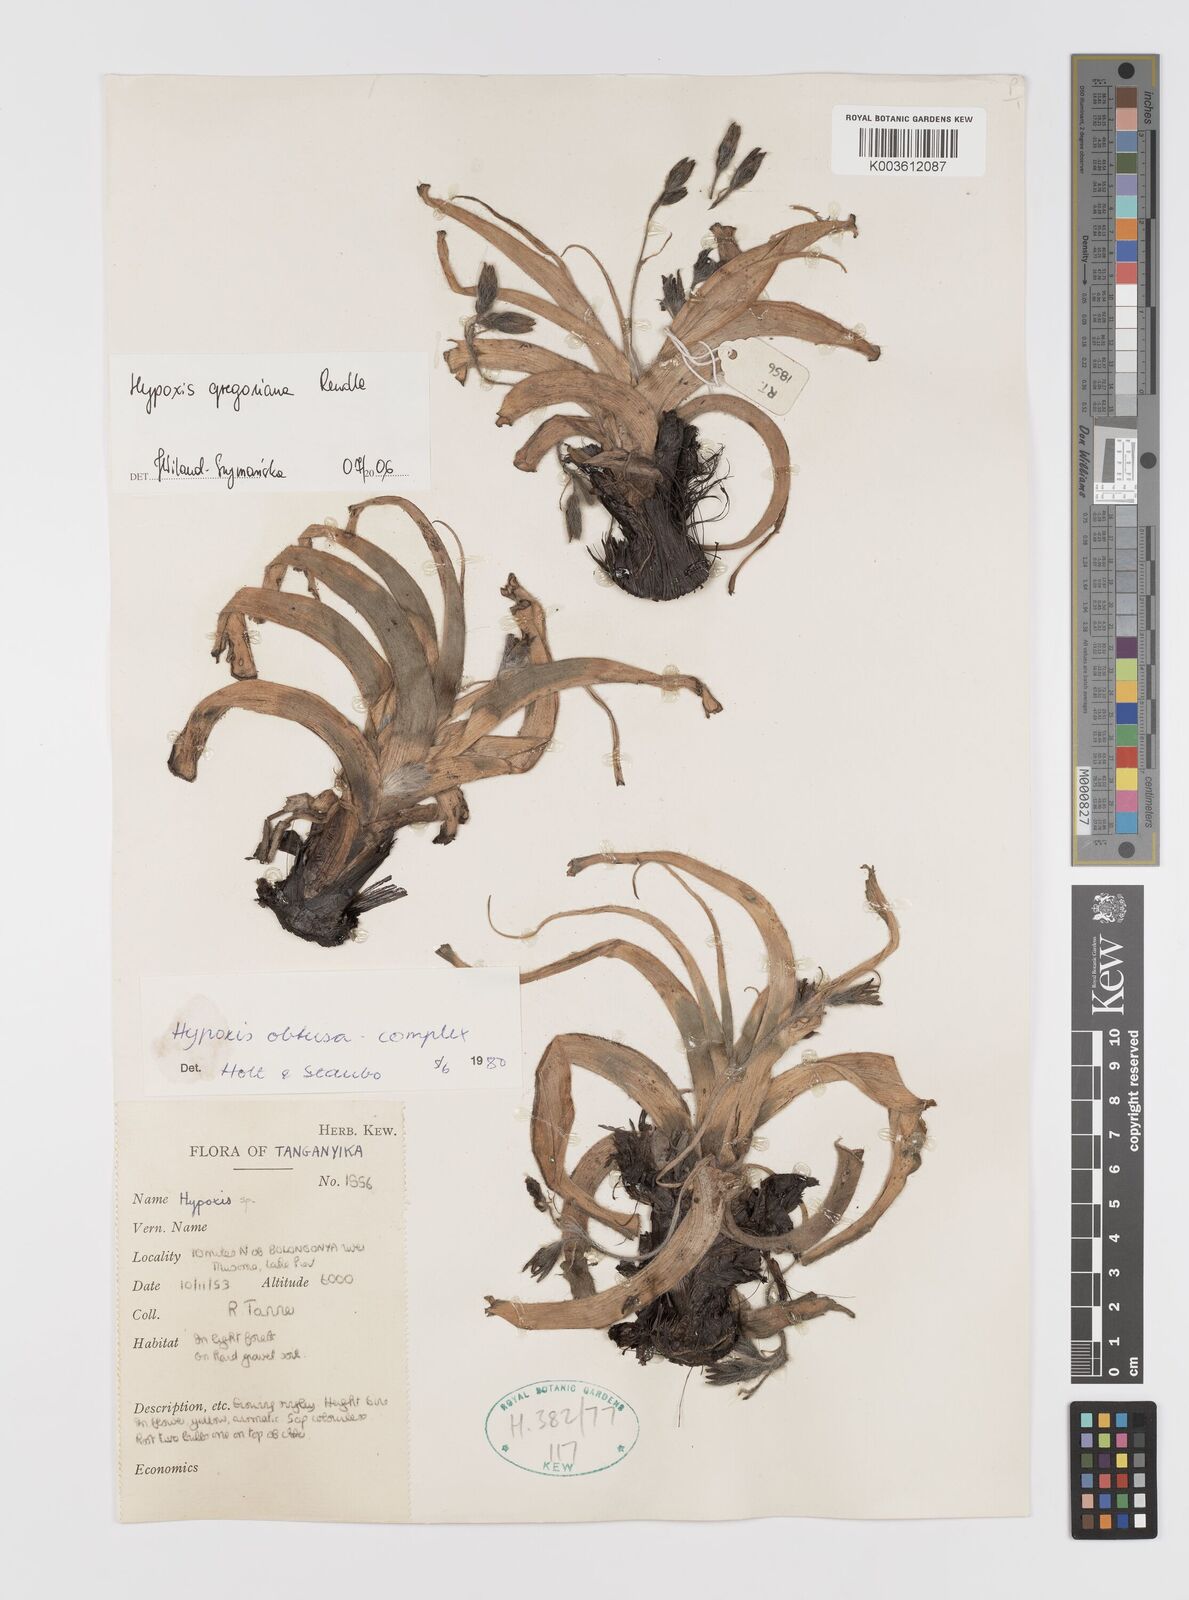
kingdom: Plantae
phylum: Tracheophyta
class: Liliopsida
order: Asparagales
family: Hypoxidaceae
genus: Hypoxis
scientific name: Hypoxis gregoriana
